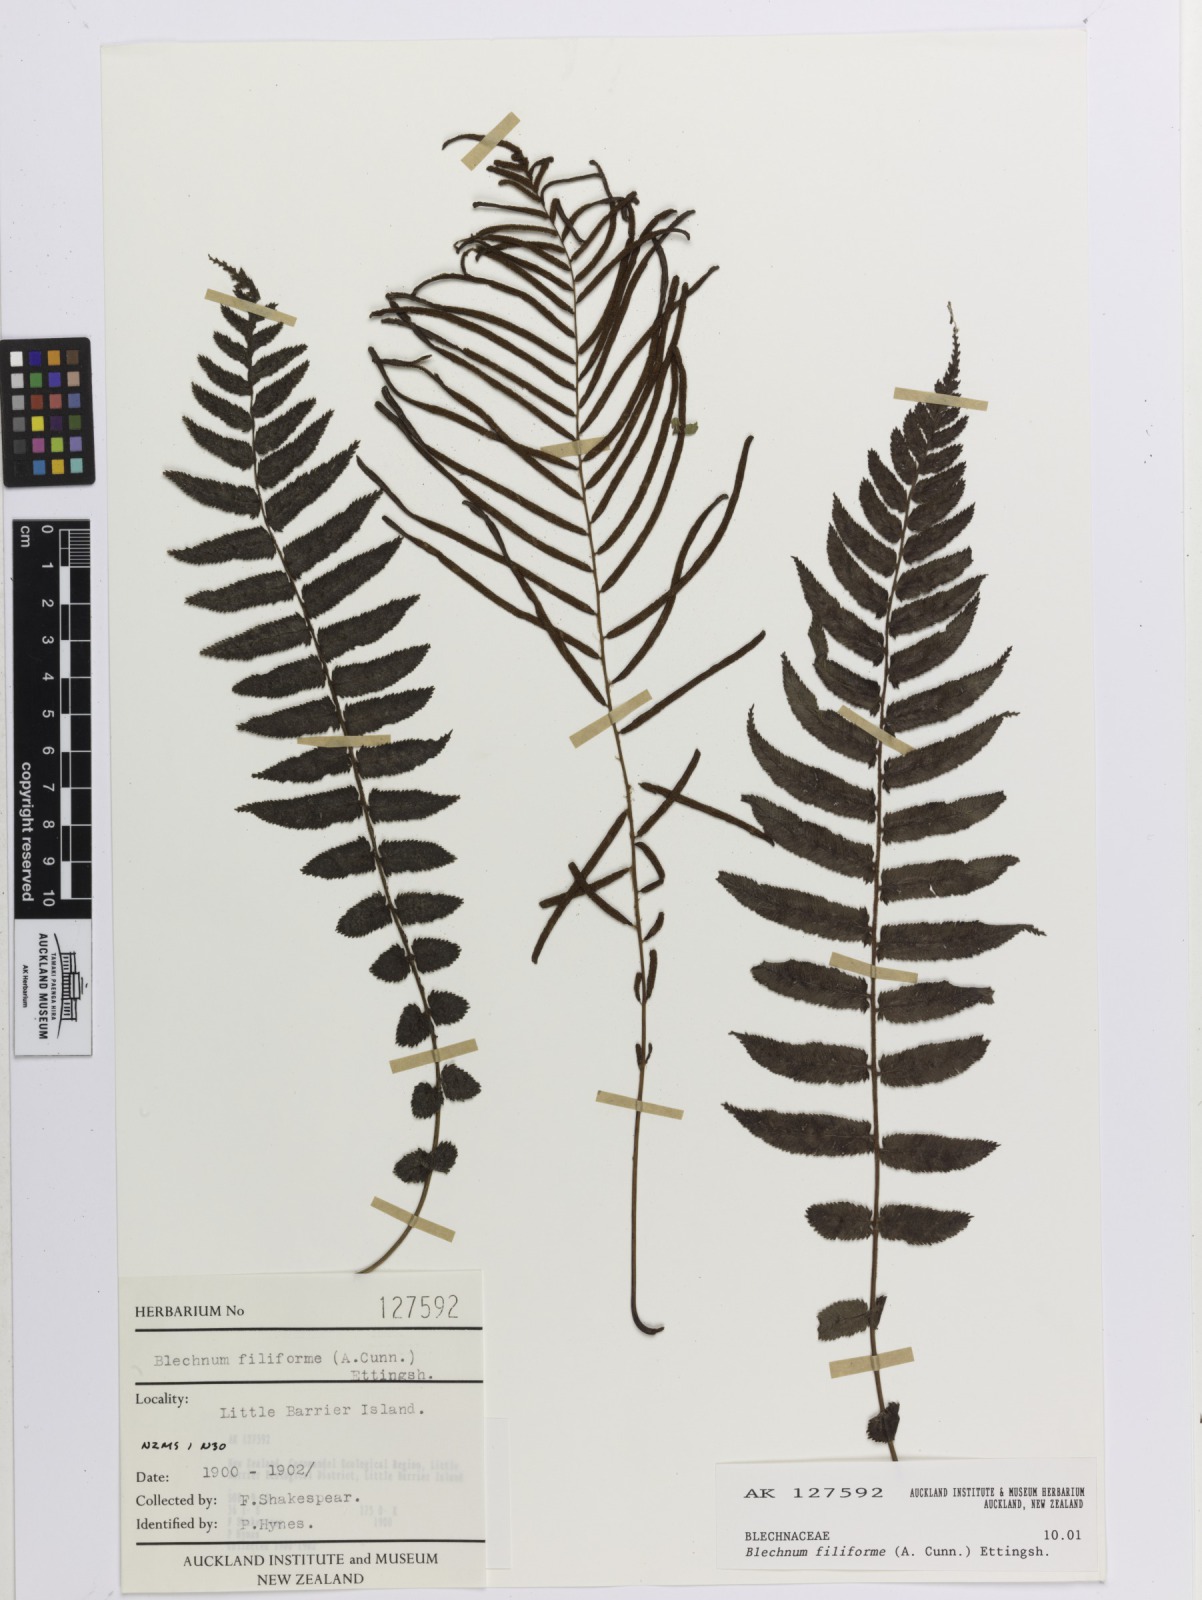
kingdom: Plantae
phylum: Tracheophyta
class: Polypodiopsida
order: Polypodiales
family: Blechnaceae
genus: Icarus
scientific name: Icarus filiformis
